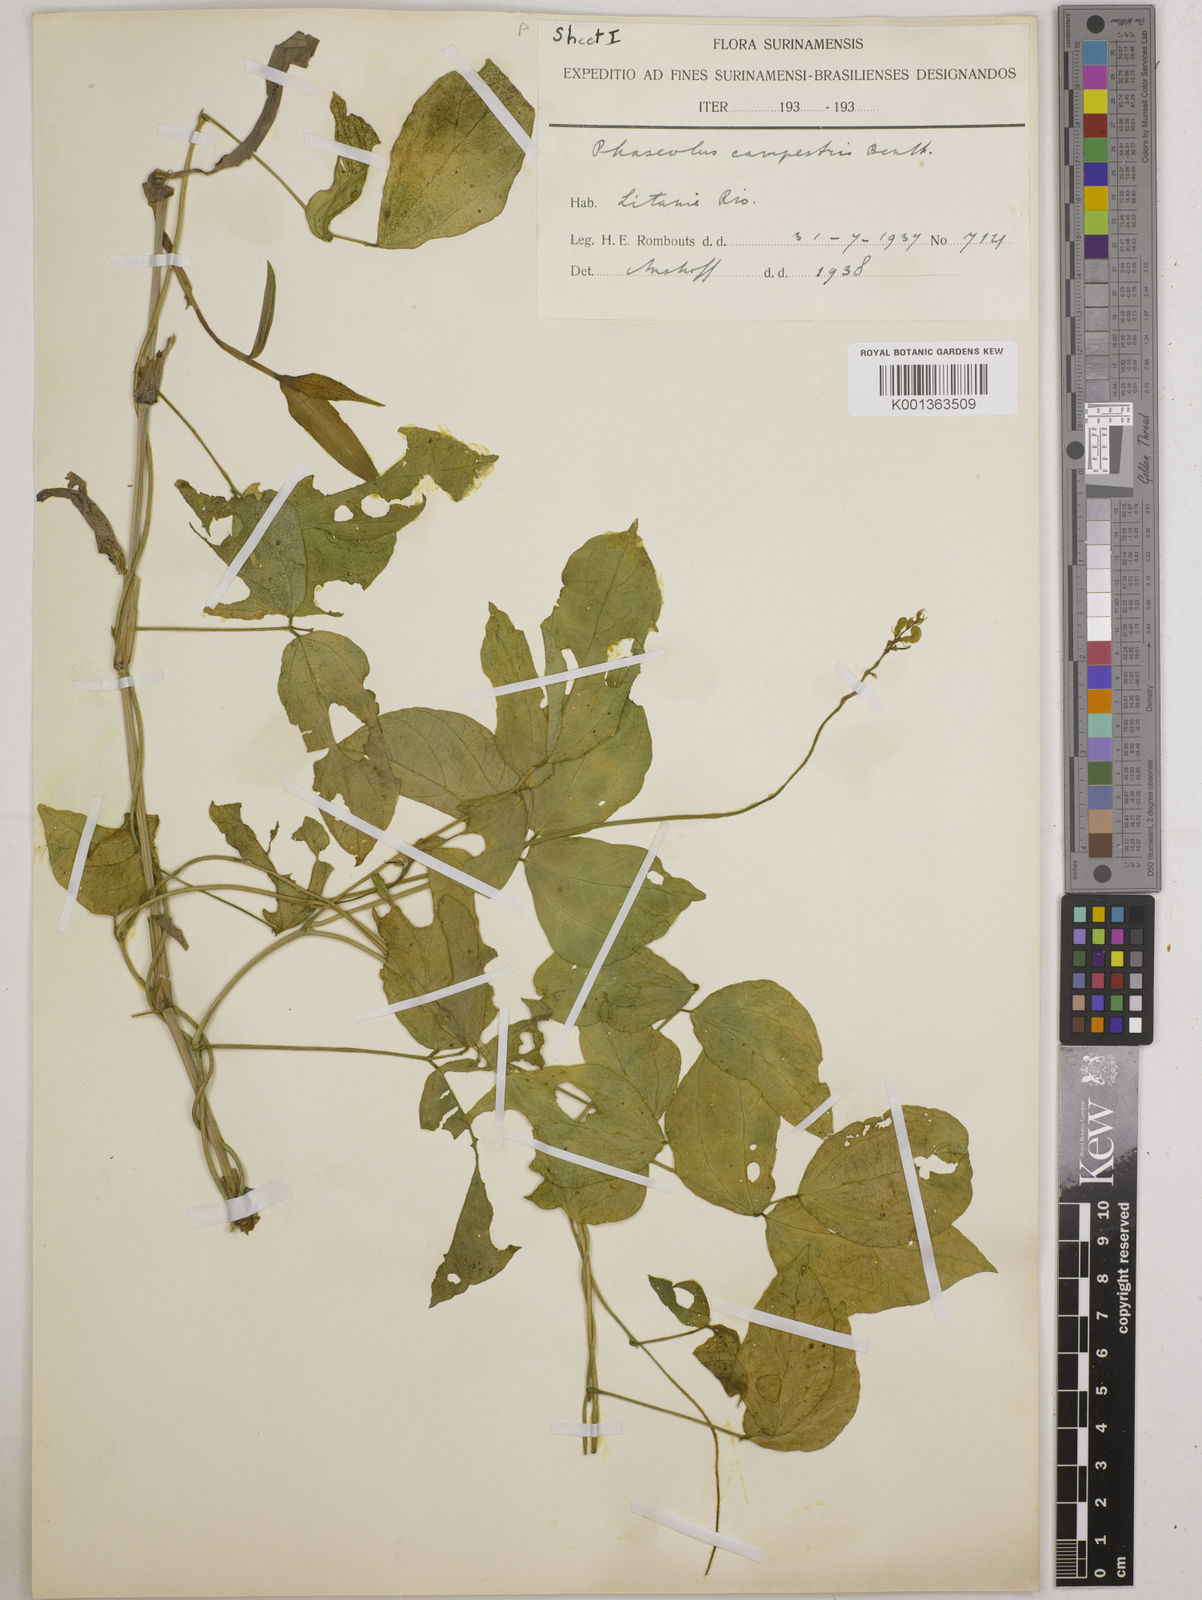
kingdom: Plantae
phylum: Tracheophyta
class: Magnoliopsida
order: Fabales
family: Fabaceae
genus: Vigna
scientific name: Vigna juruana
